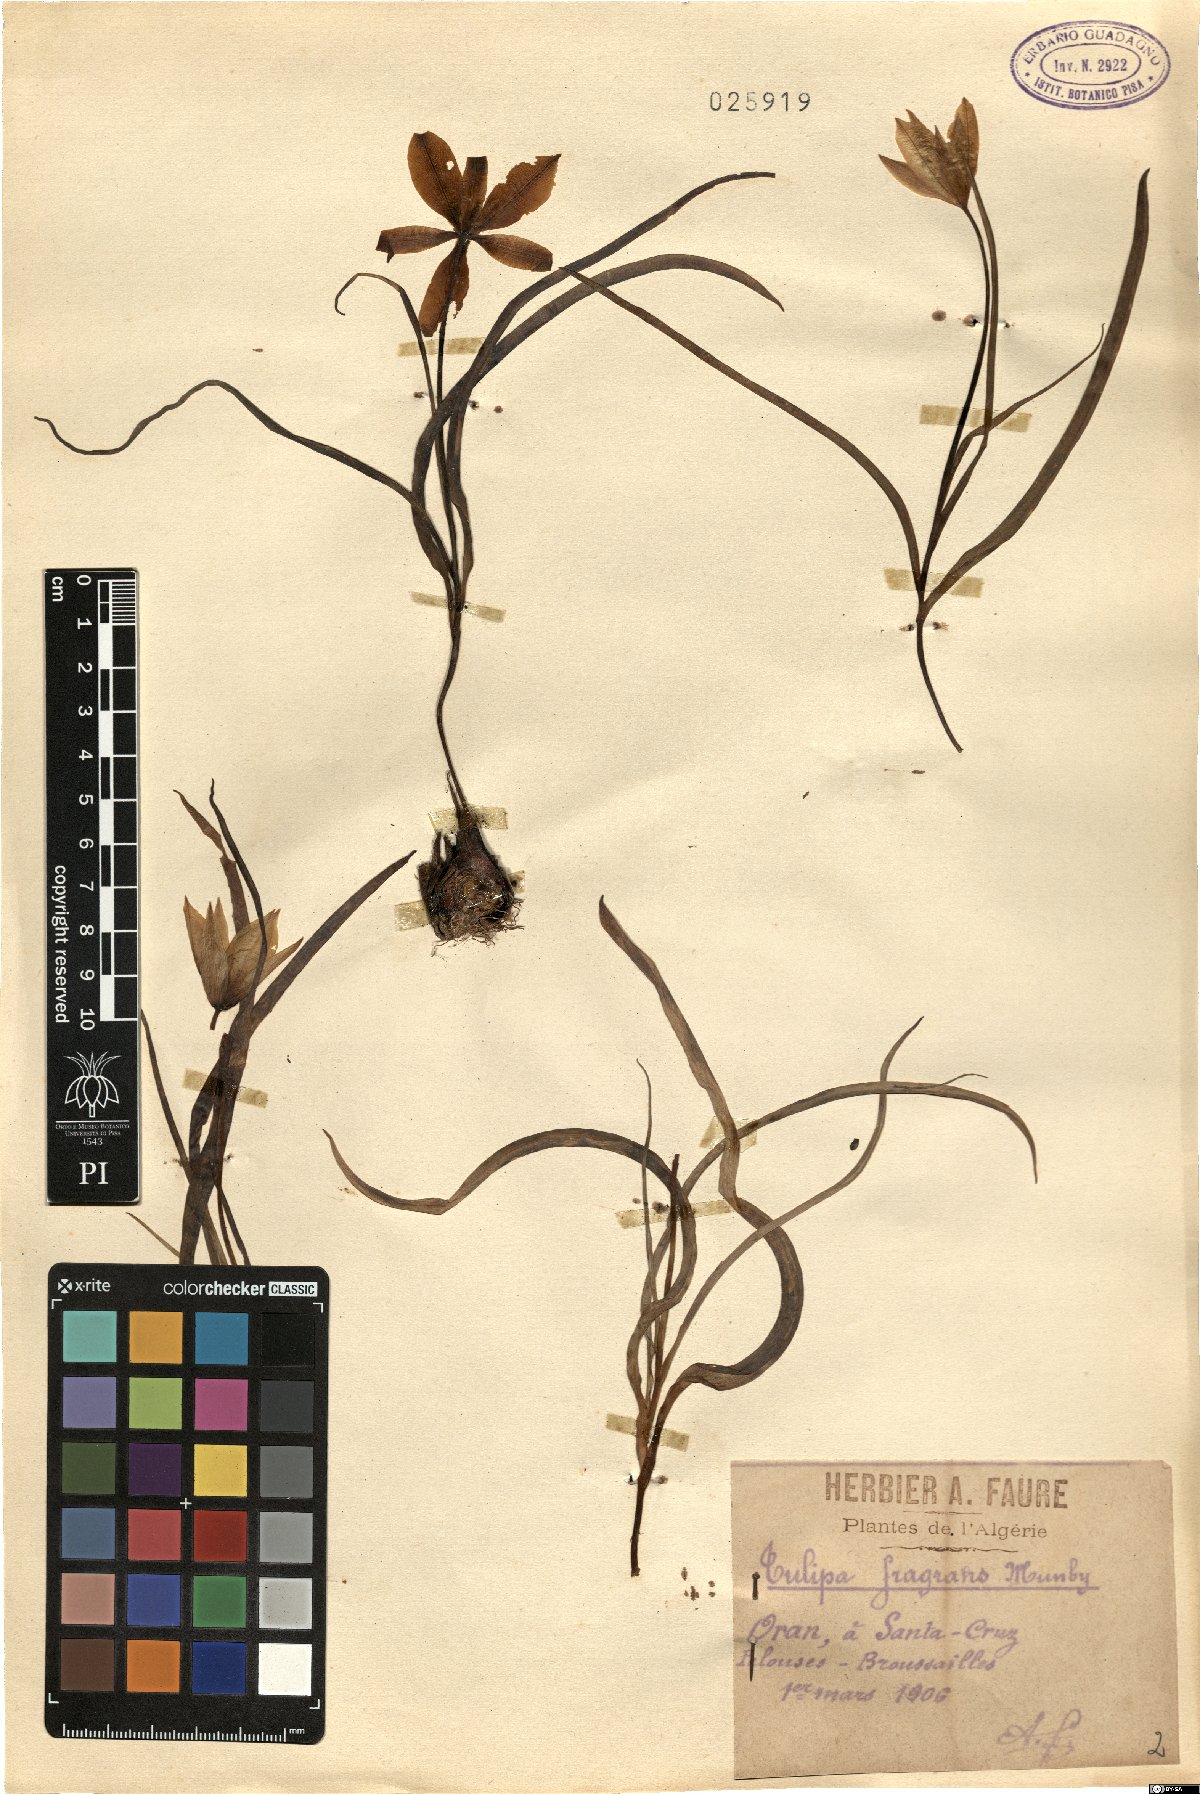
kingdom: Plantae
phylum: Tracheophyta
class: Liliopsida
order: Liliales
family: Liliaceae
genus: Tulipa
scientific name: Tulipa sylvestris
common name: Wild tulip
